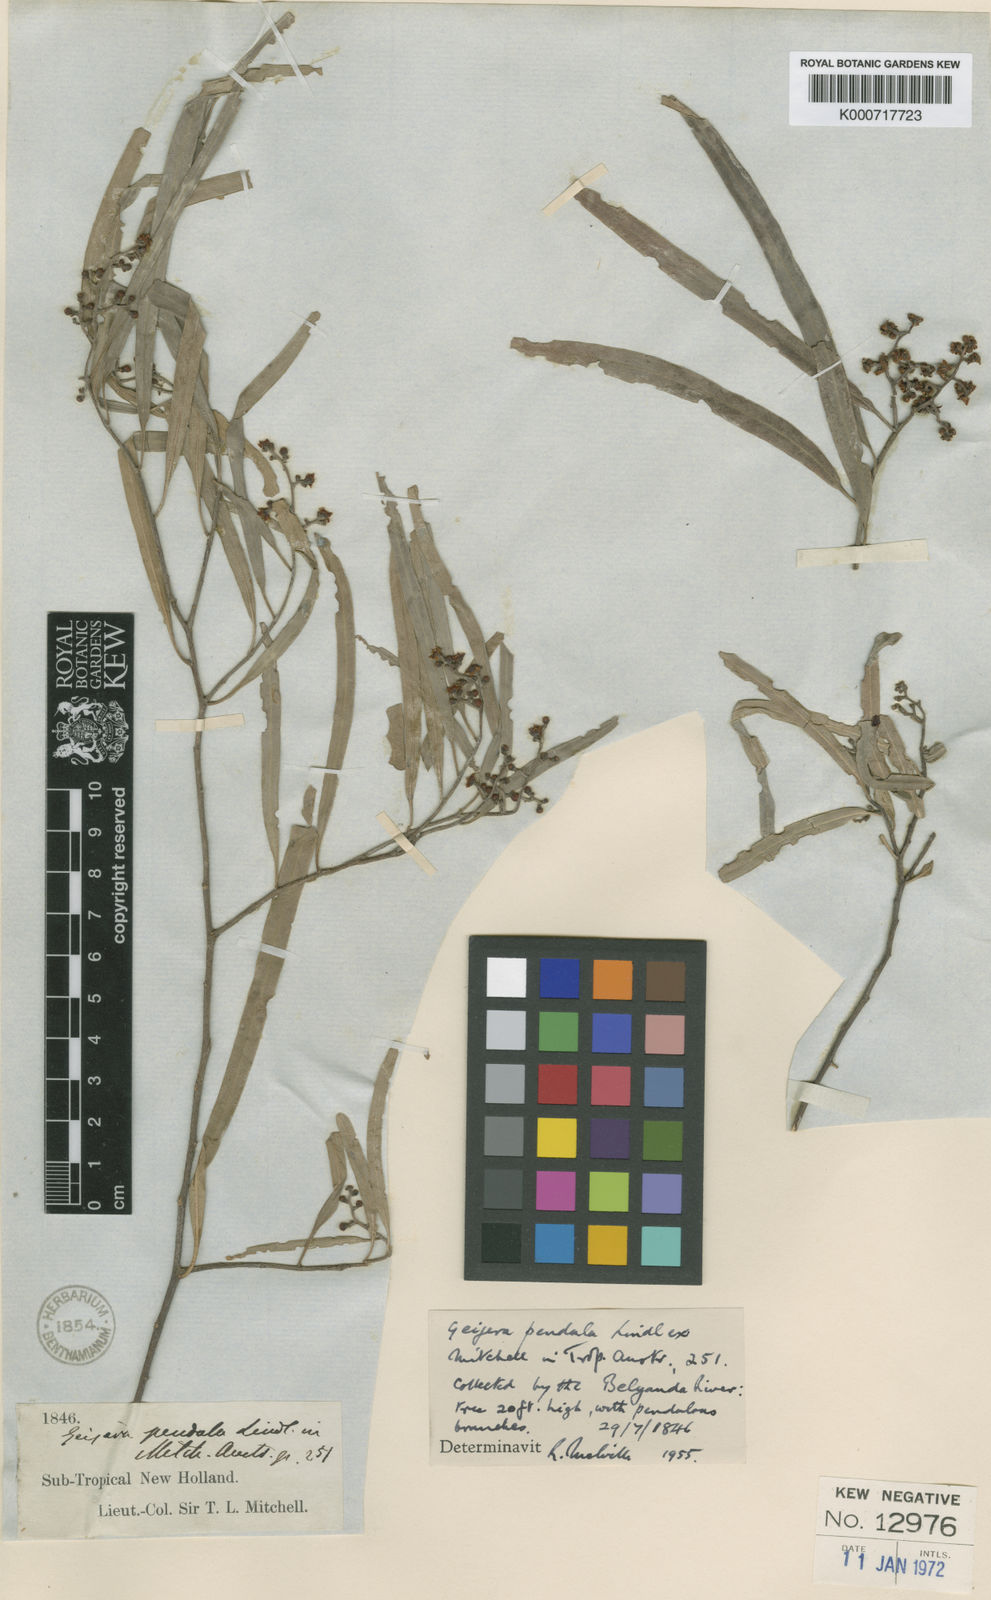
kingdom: Plantae
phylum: Tracheophyta
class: Magnoliopsida
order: Sapindales
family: Rutaceae
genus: Geijera
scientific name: Geijera parviflora
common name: Wilga
